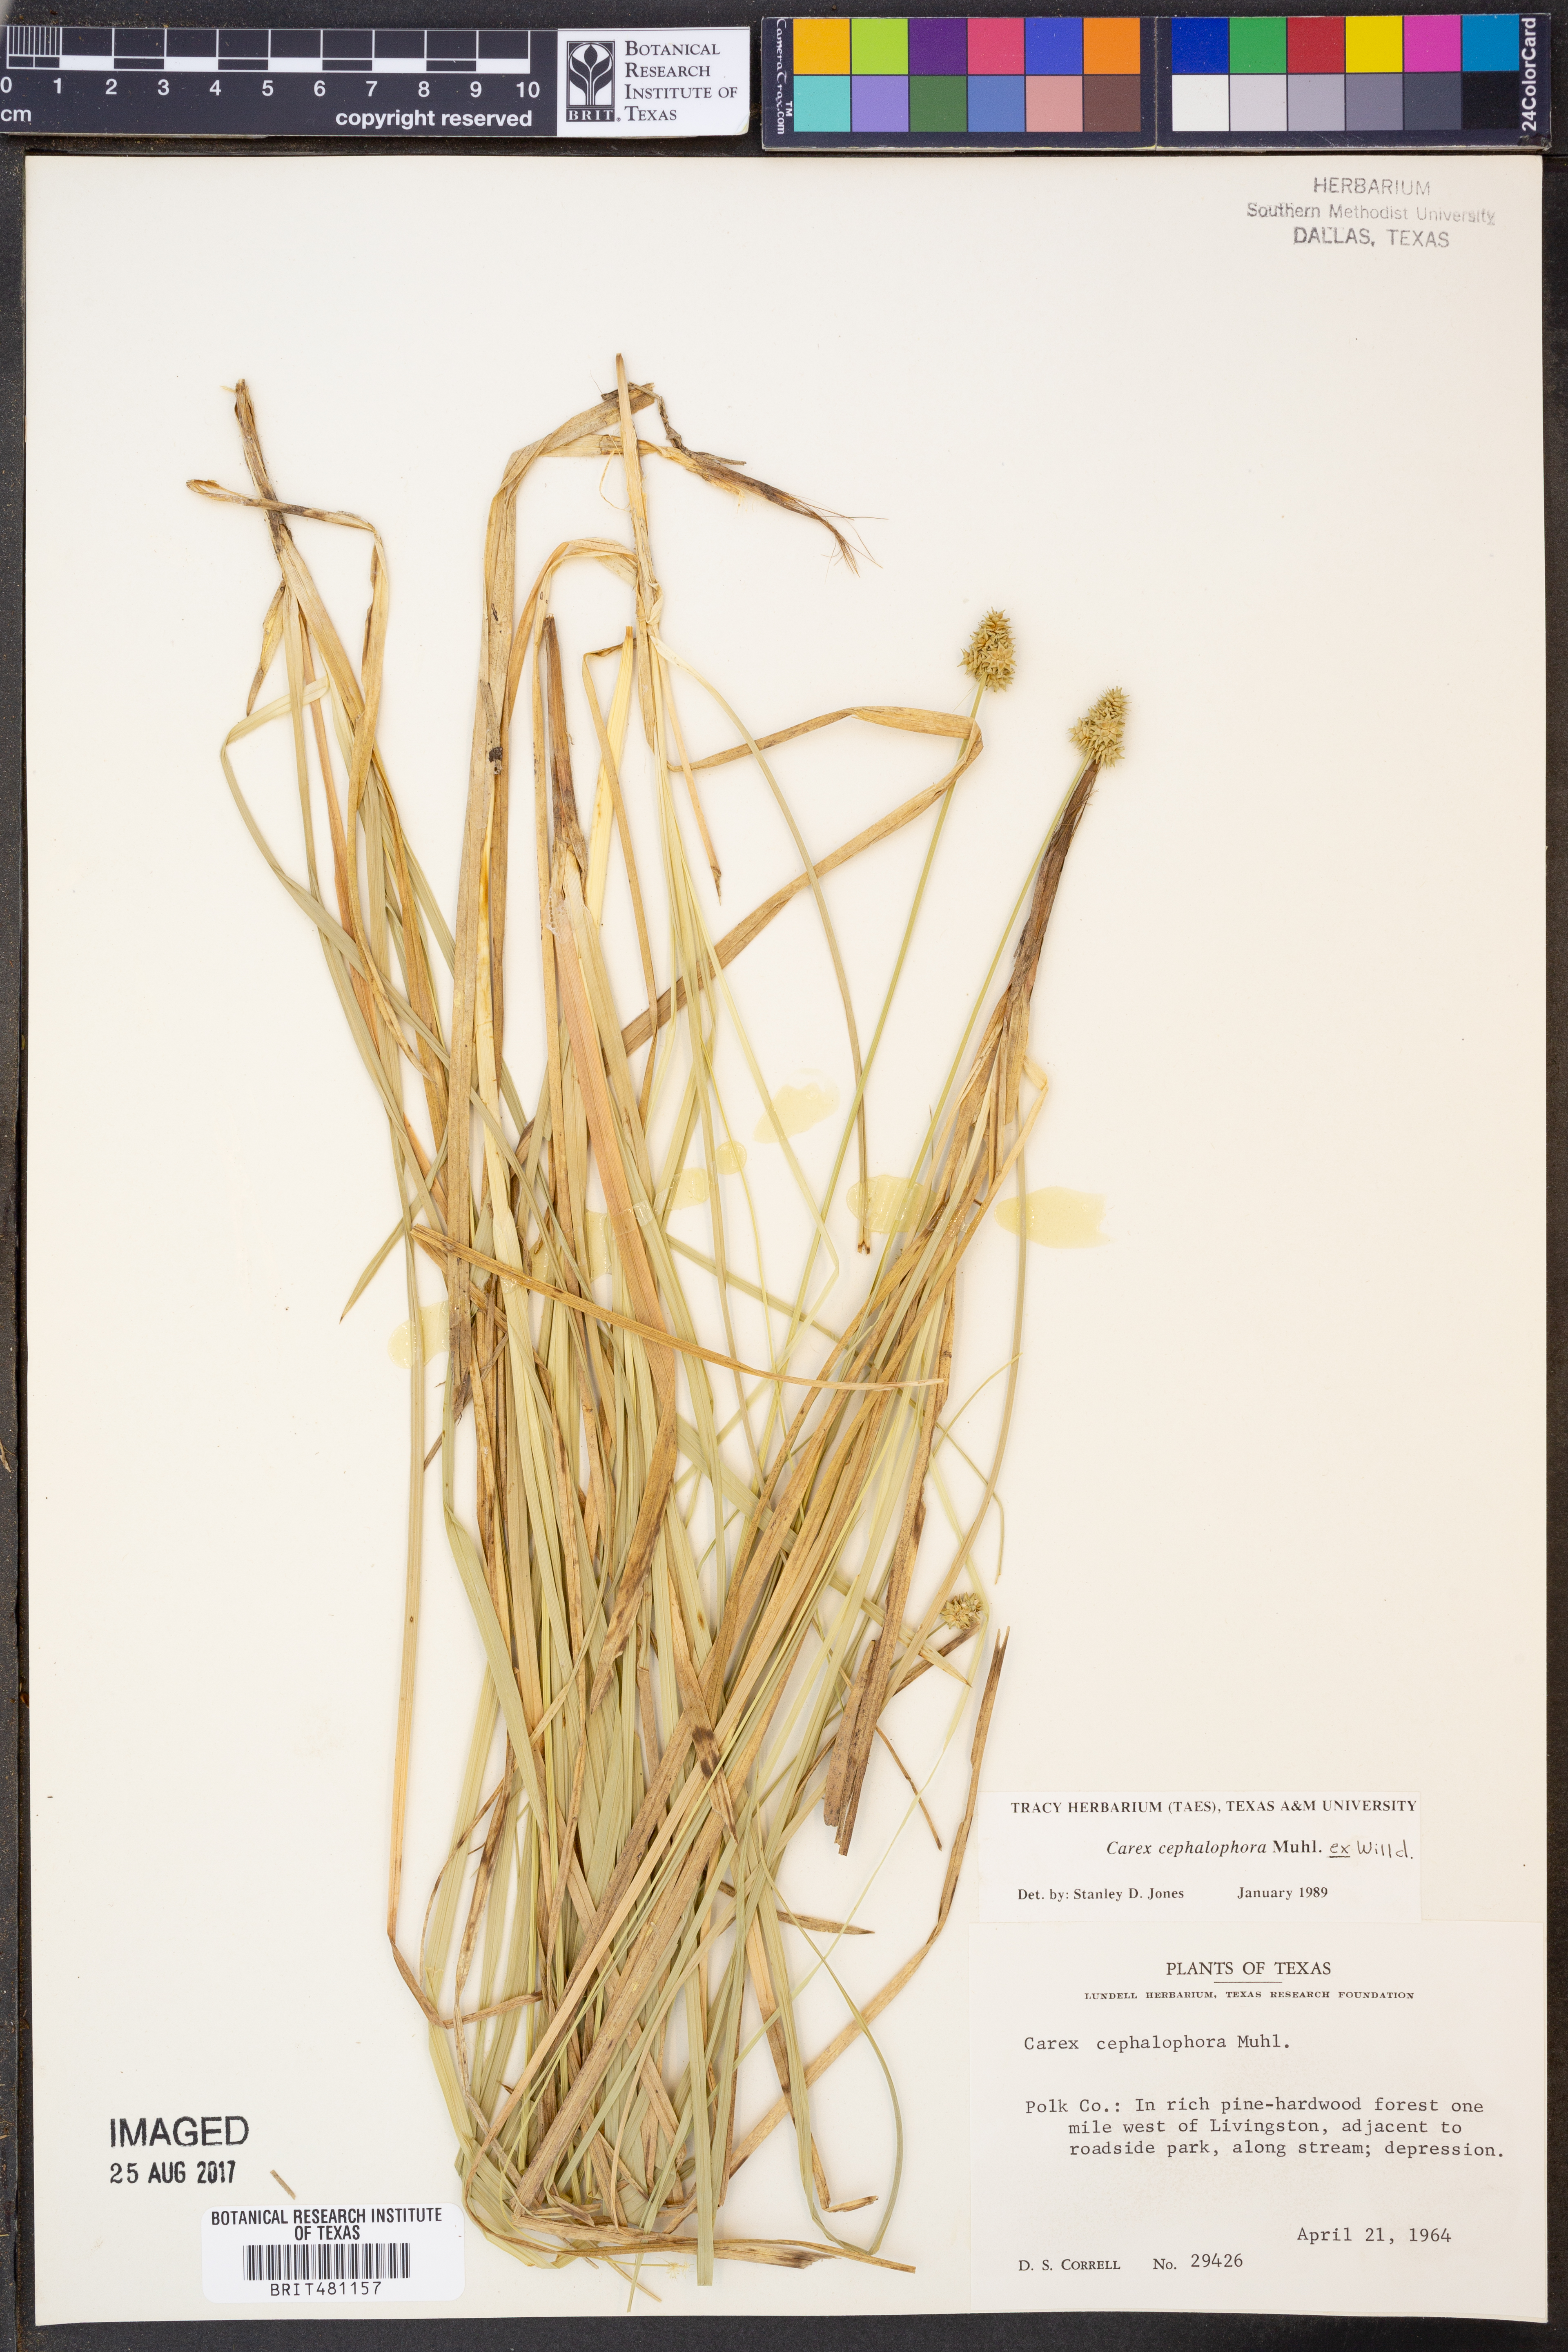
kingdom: Plantae
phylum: Tracheophyta
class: Liliopsida
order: Poales
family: Cyperaceae
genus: Carex
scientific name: Carex cephalophora
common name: Oval-headed sedge
